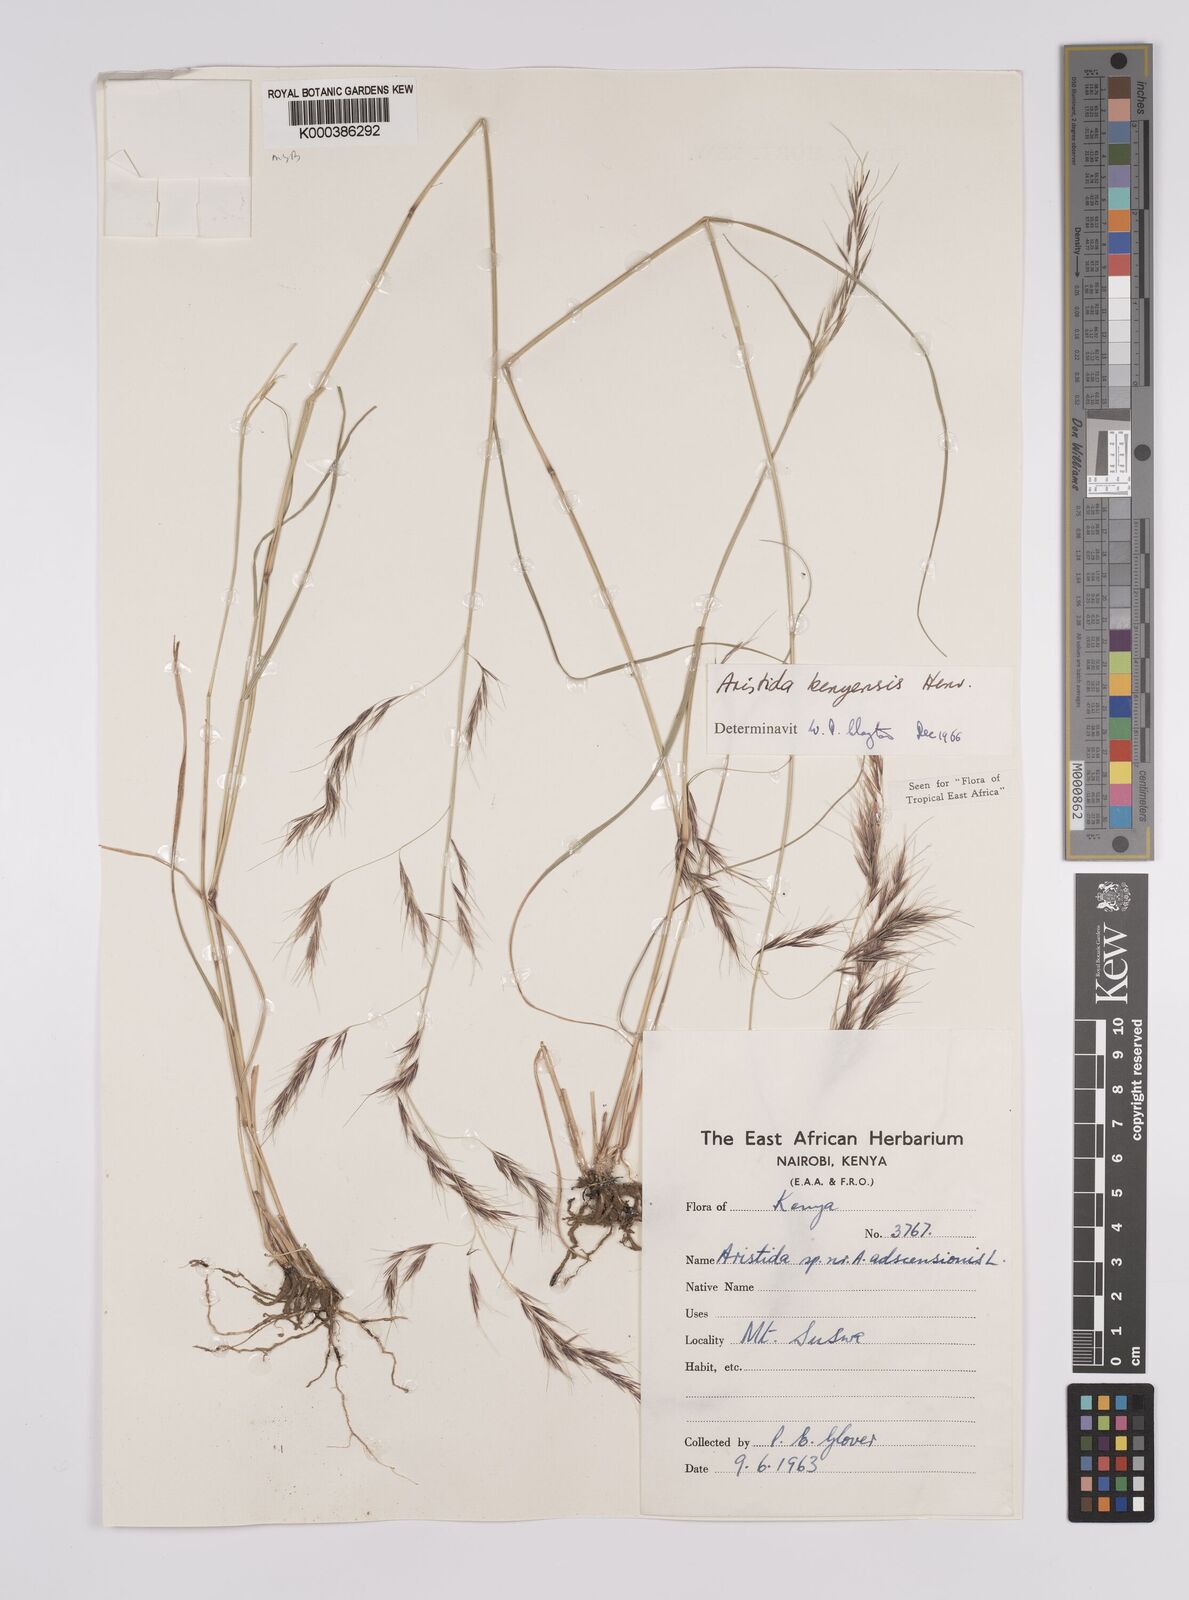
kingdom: Plantae
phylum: Tracheophyta
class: Liliopsida
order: Poales
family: Poaceae
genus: Aristida
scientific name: Aristida kenyensis
